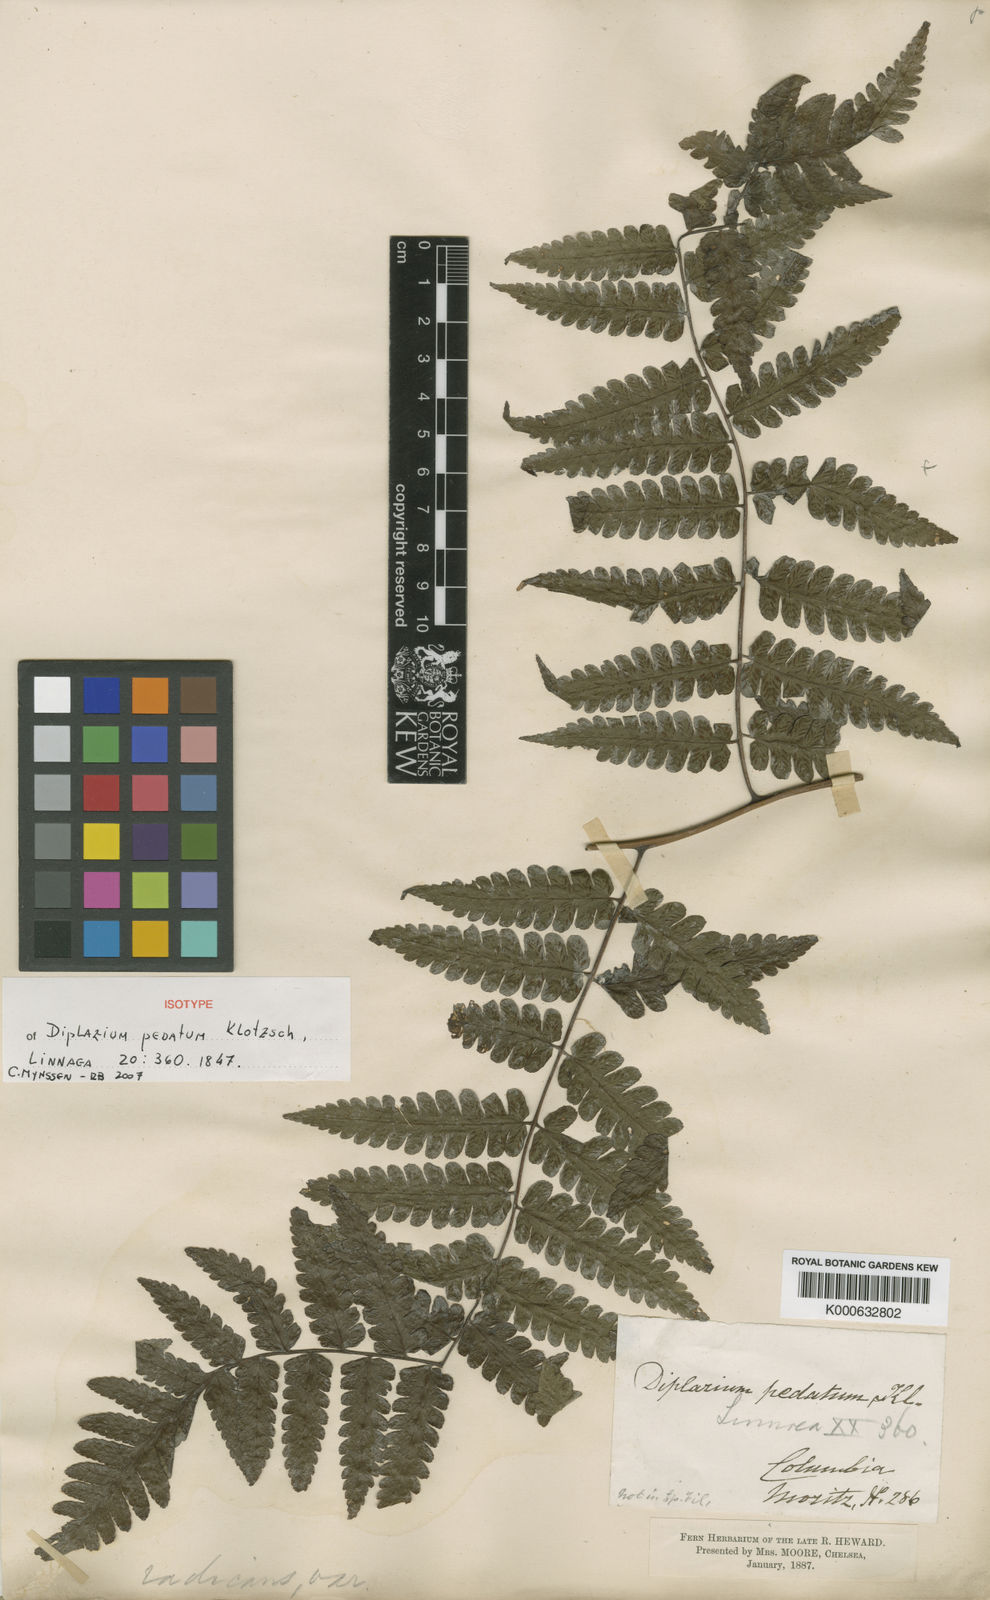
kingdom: Plantae
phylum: Tracheophyta
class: Polypodiopsida
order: Polypodiales
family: Athyriaceae
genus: Diplazium
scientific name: Diplazium pedatum
